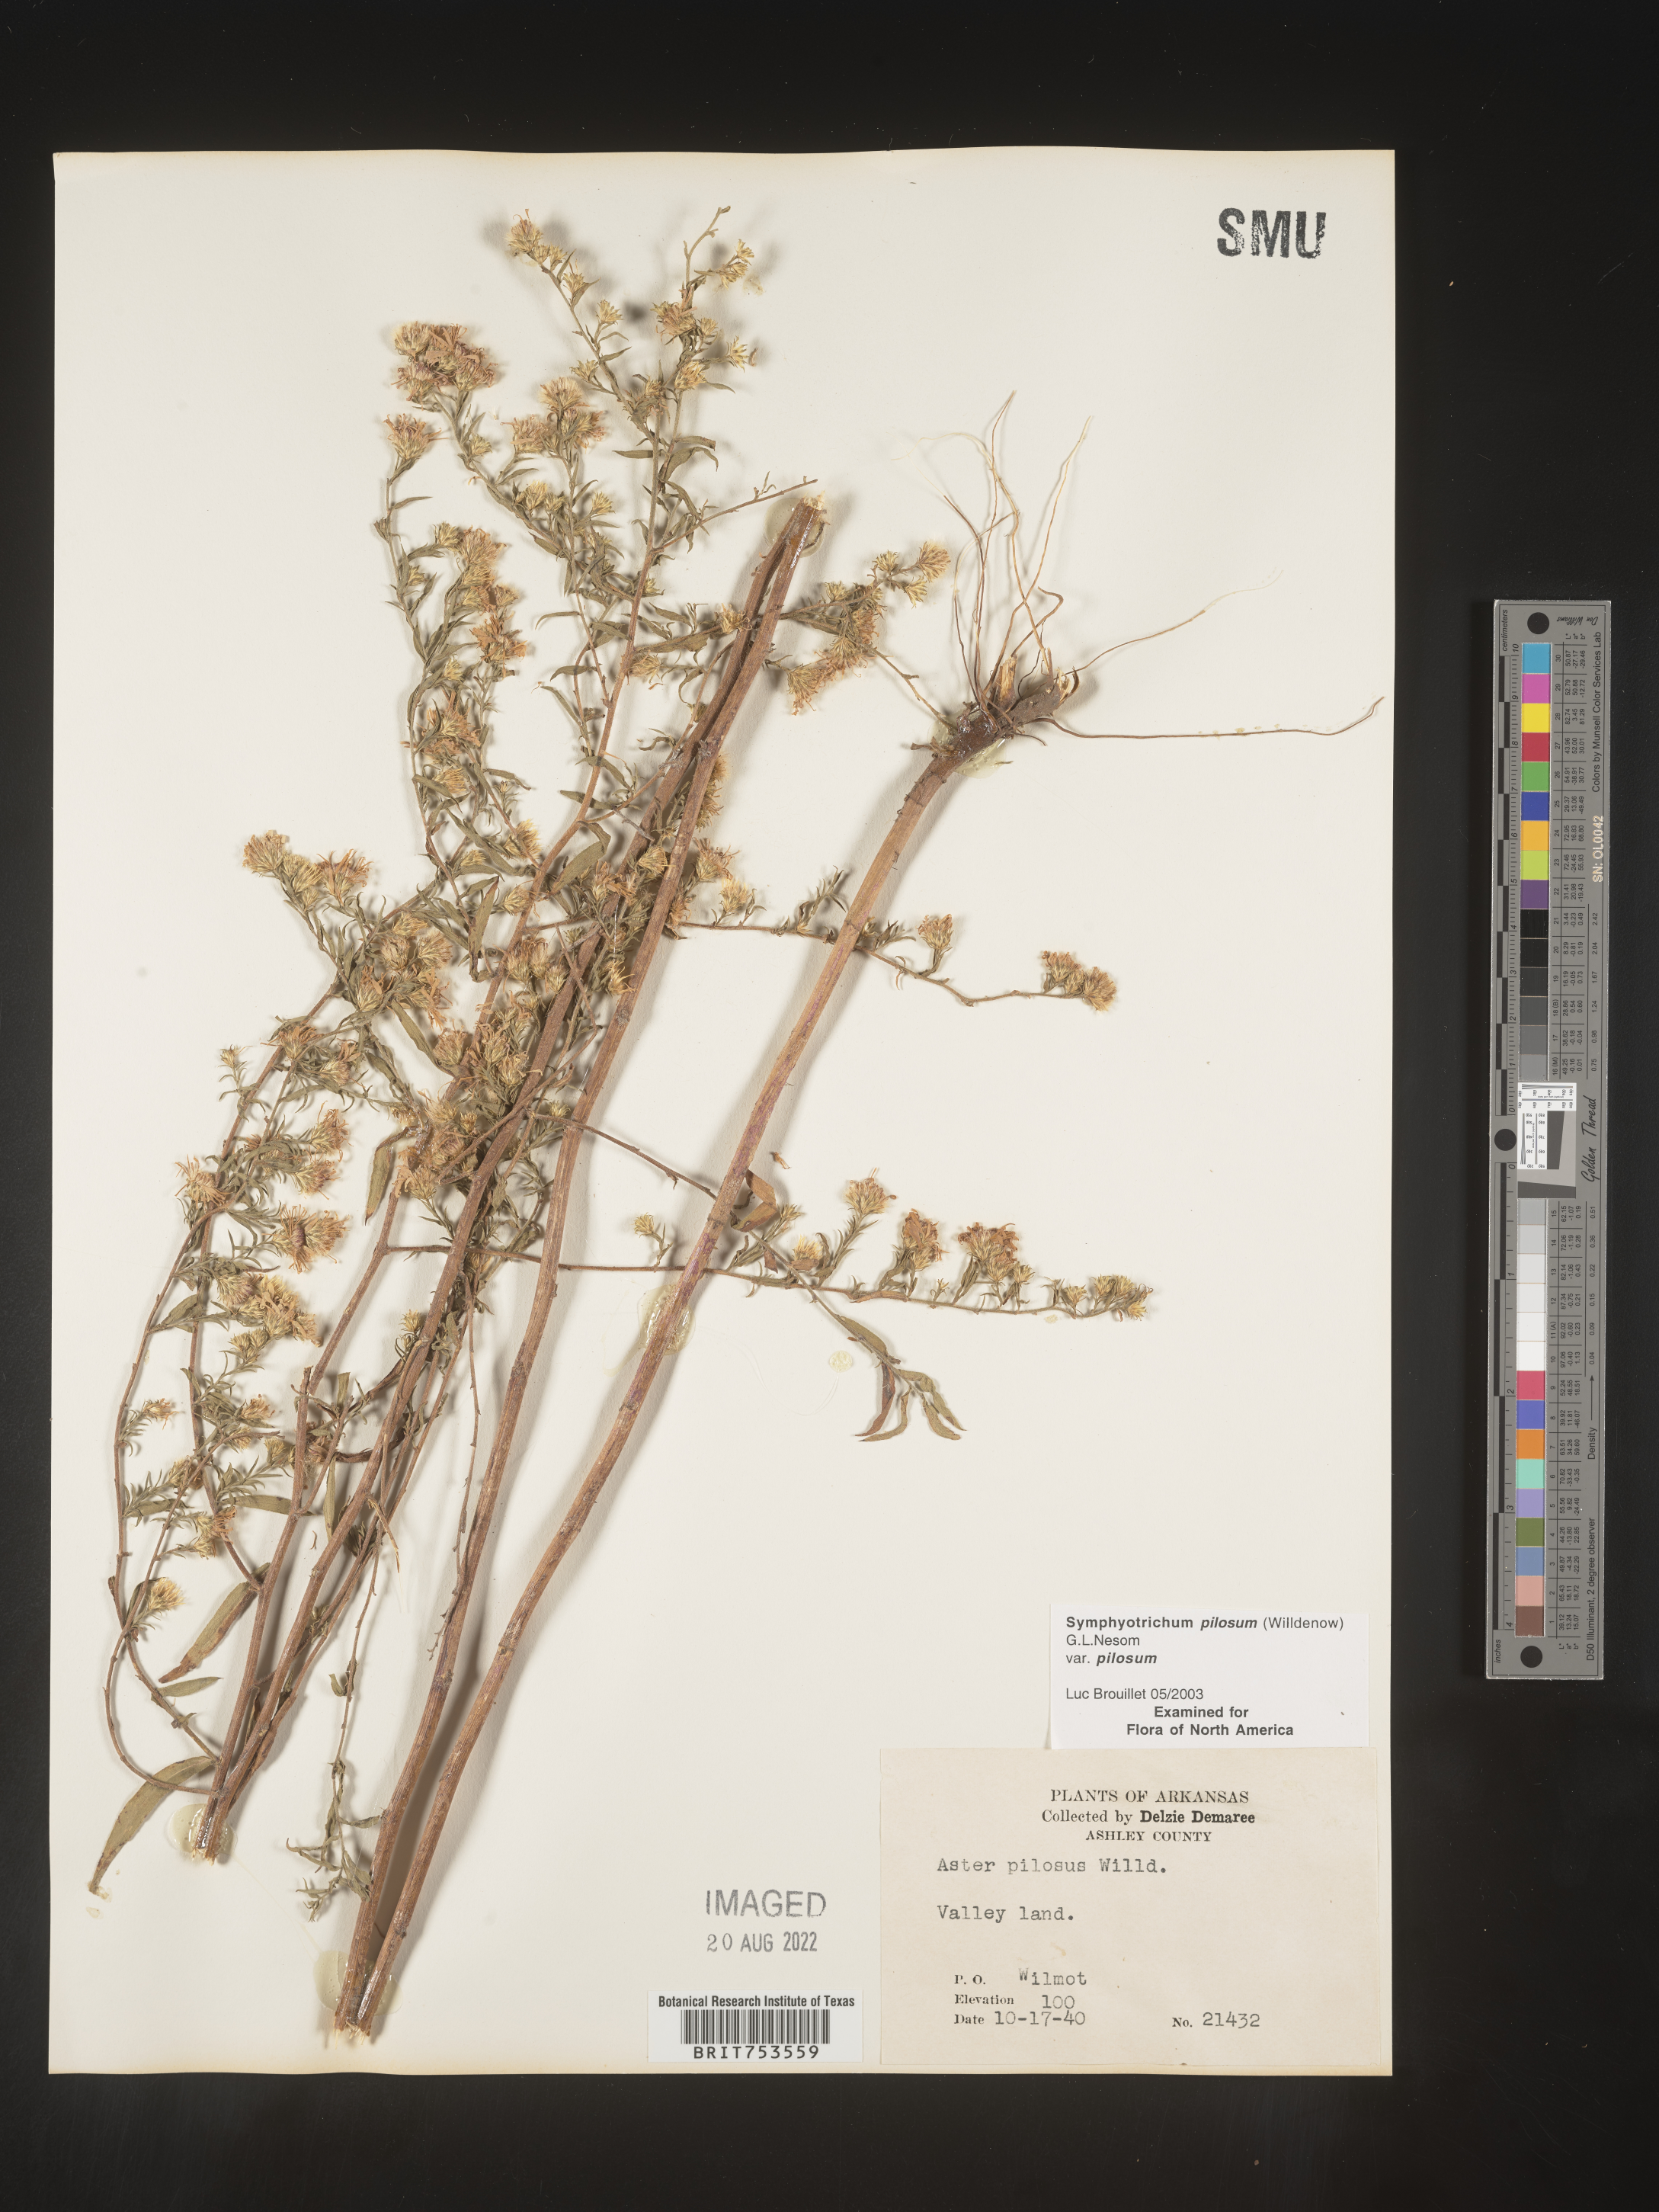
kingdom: Plantae
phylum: Tracheophyta
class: Magnoliopsida
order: Asterales
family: Asteraceae
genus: Symphyotrichum
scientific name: Symphyotrichum pilosum
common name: Awl aster
